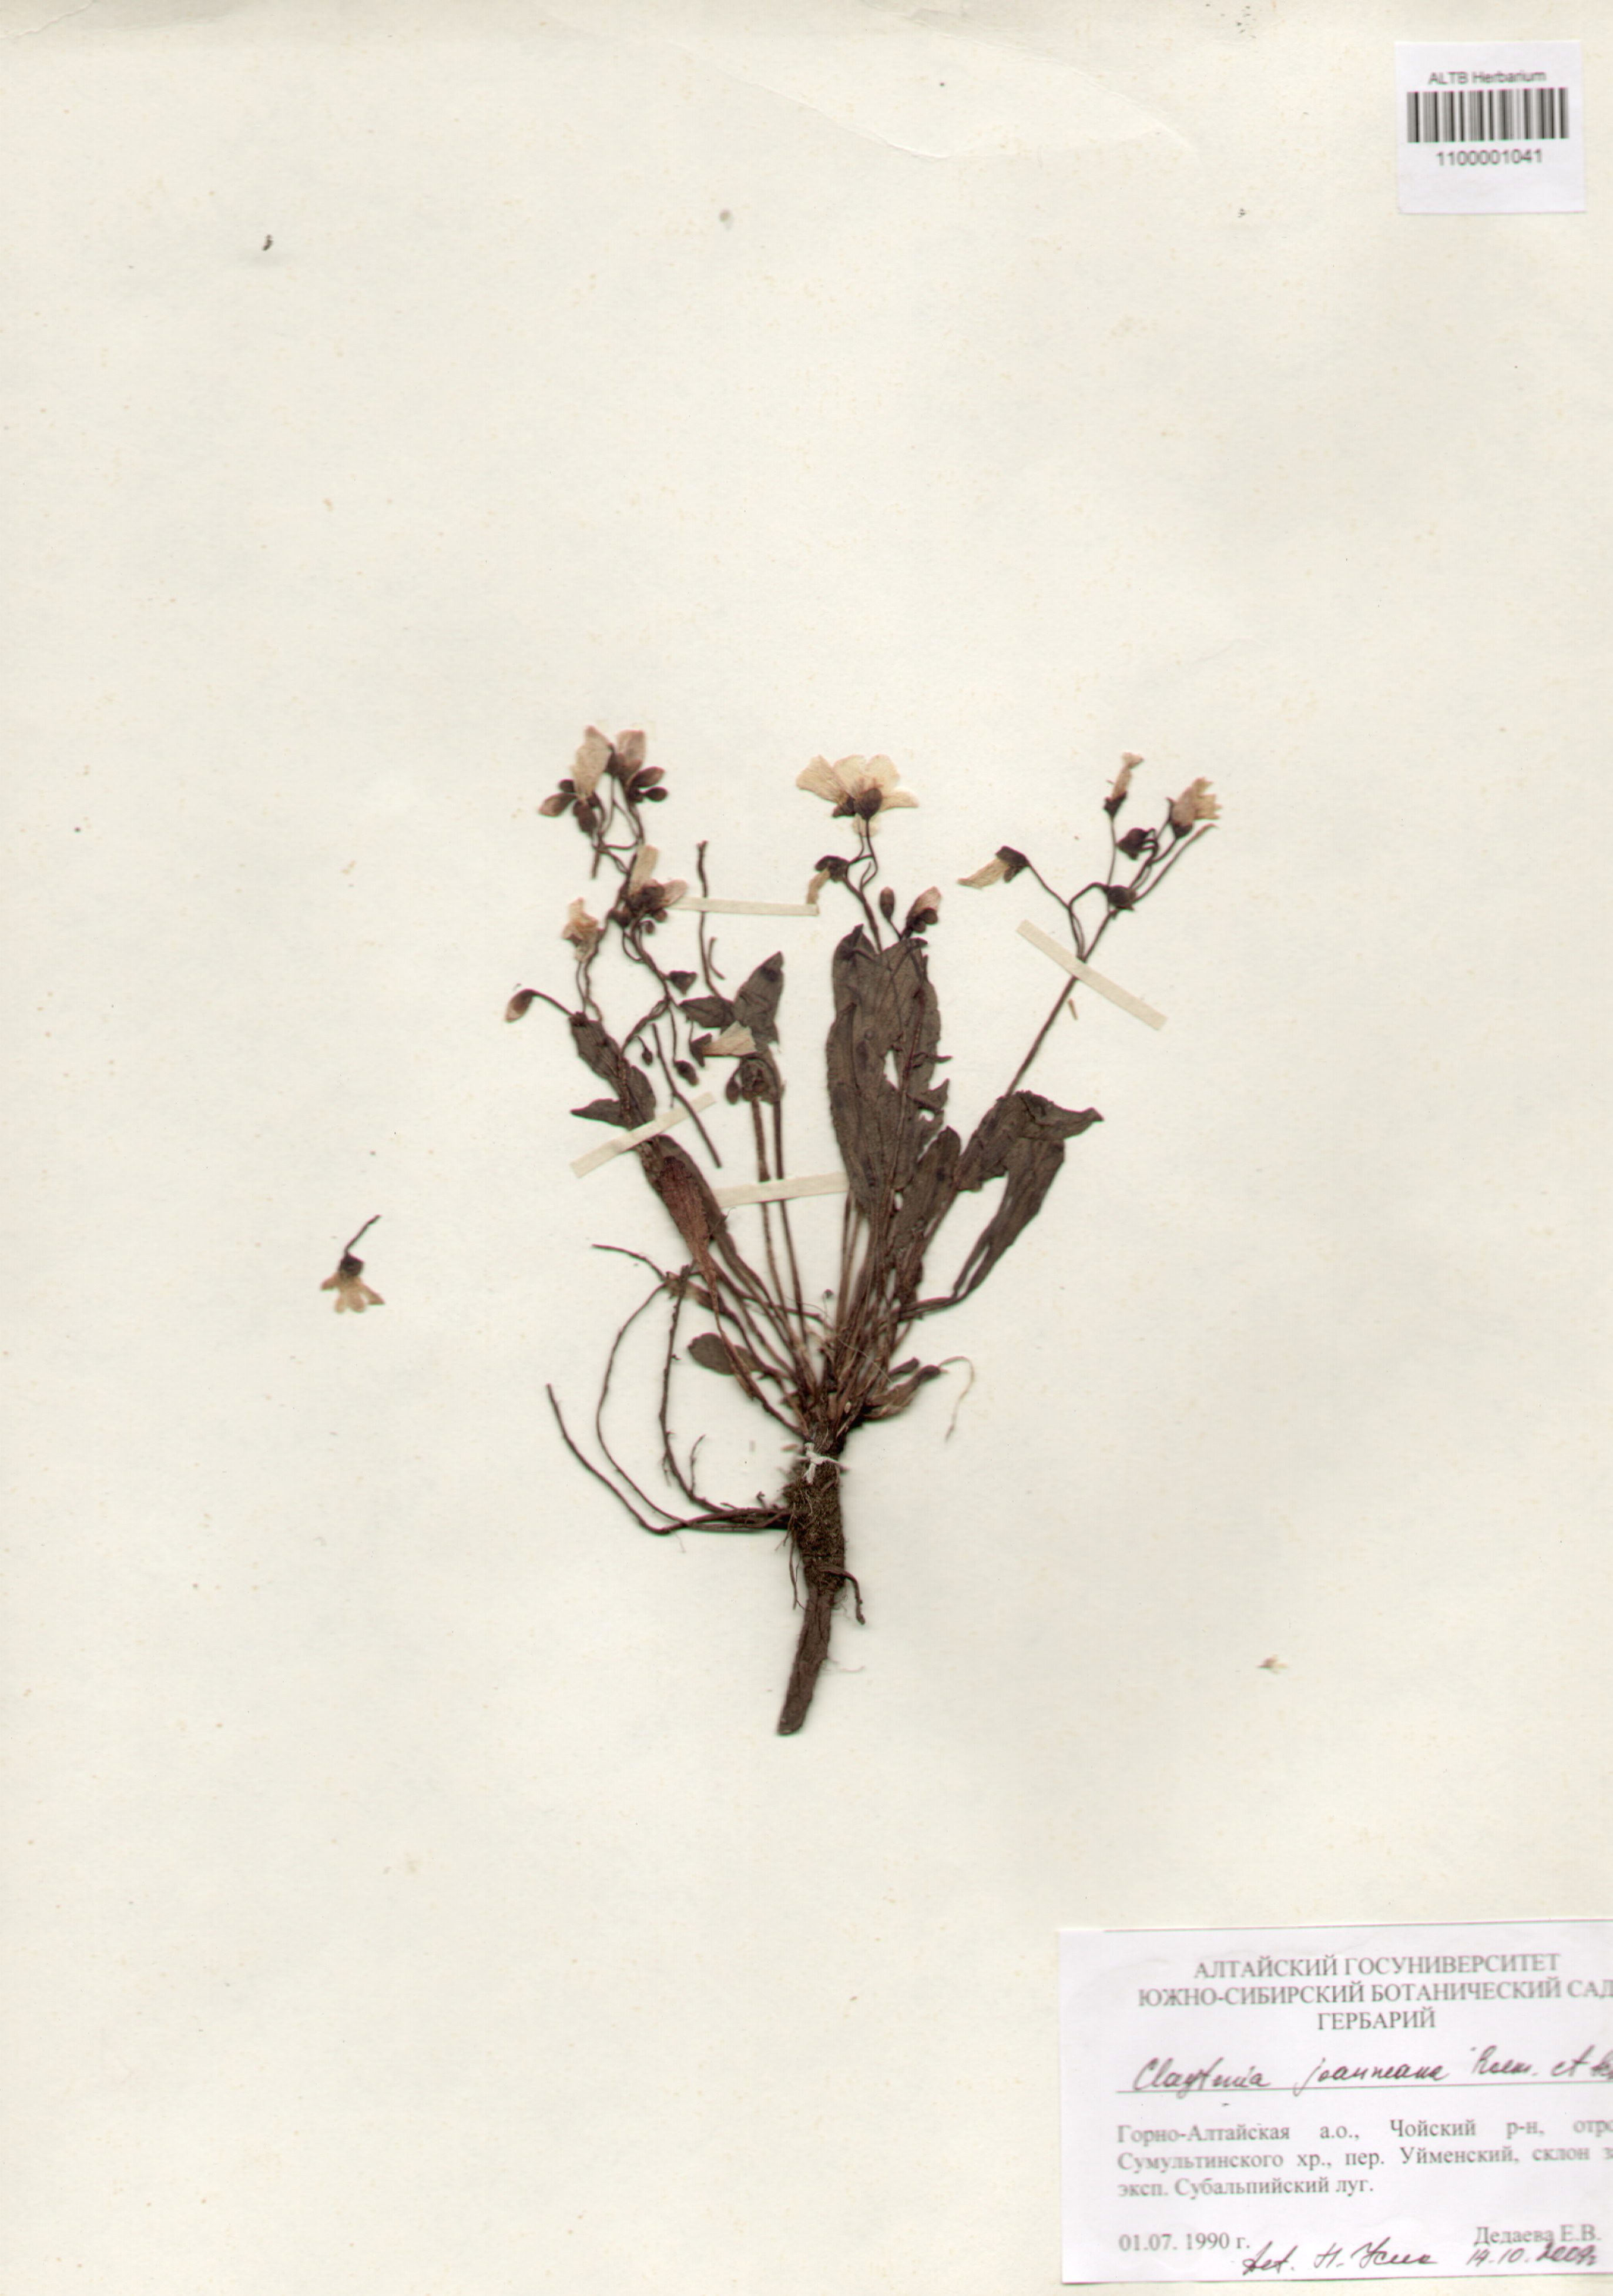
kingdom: Plantae
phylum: Tracheophyta
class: Magnoliopsida
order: Caryophyllales
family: Montiaceae
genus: Claytonia
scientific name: Claytonia joanneana
